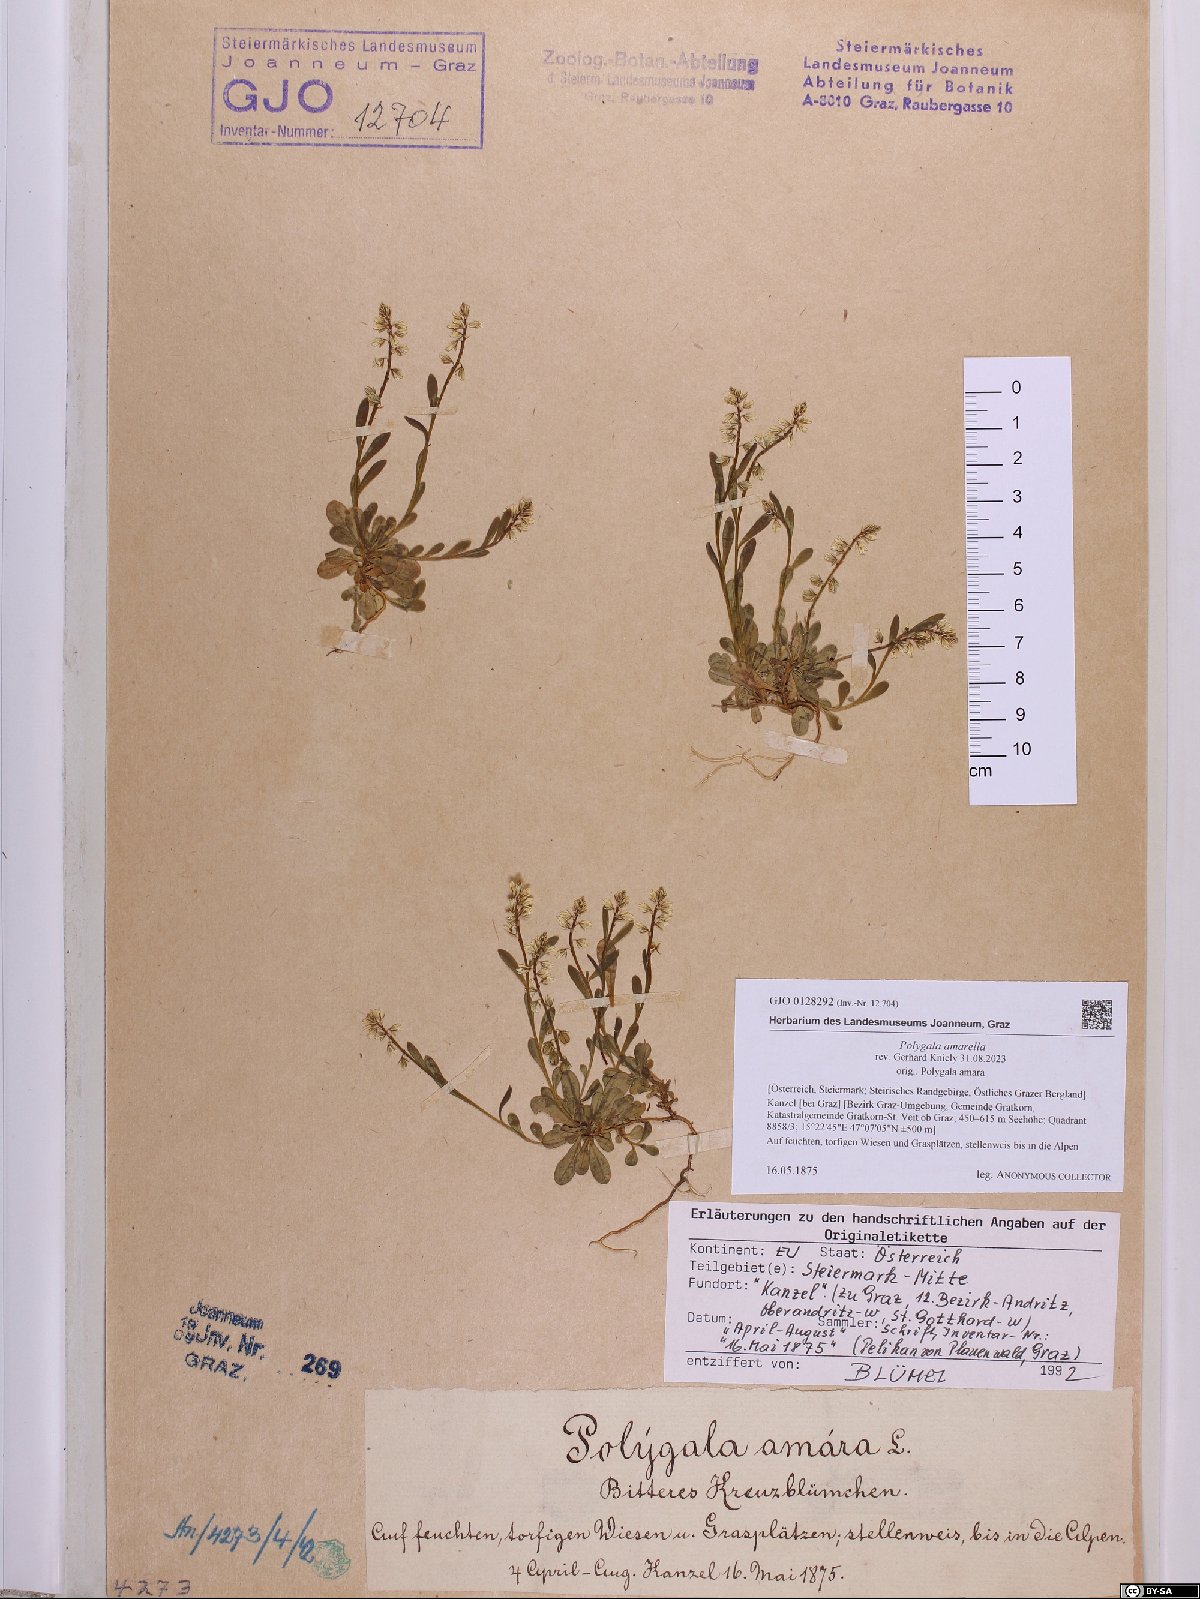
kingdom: Plantae
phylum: Tracheophyta
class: Magnoliopsida
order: Fabales
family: Polygalaceae
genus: Polygala
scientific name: Polygala amarella
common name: Dwarf milkwort
